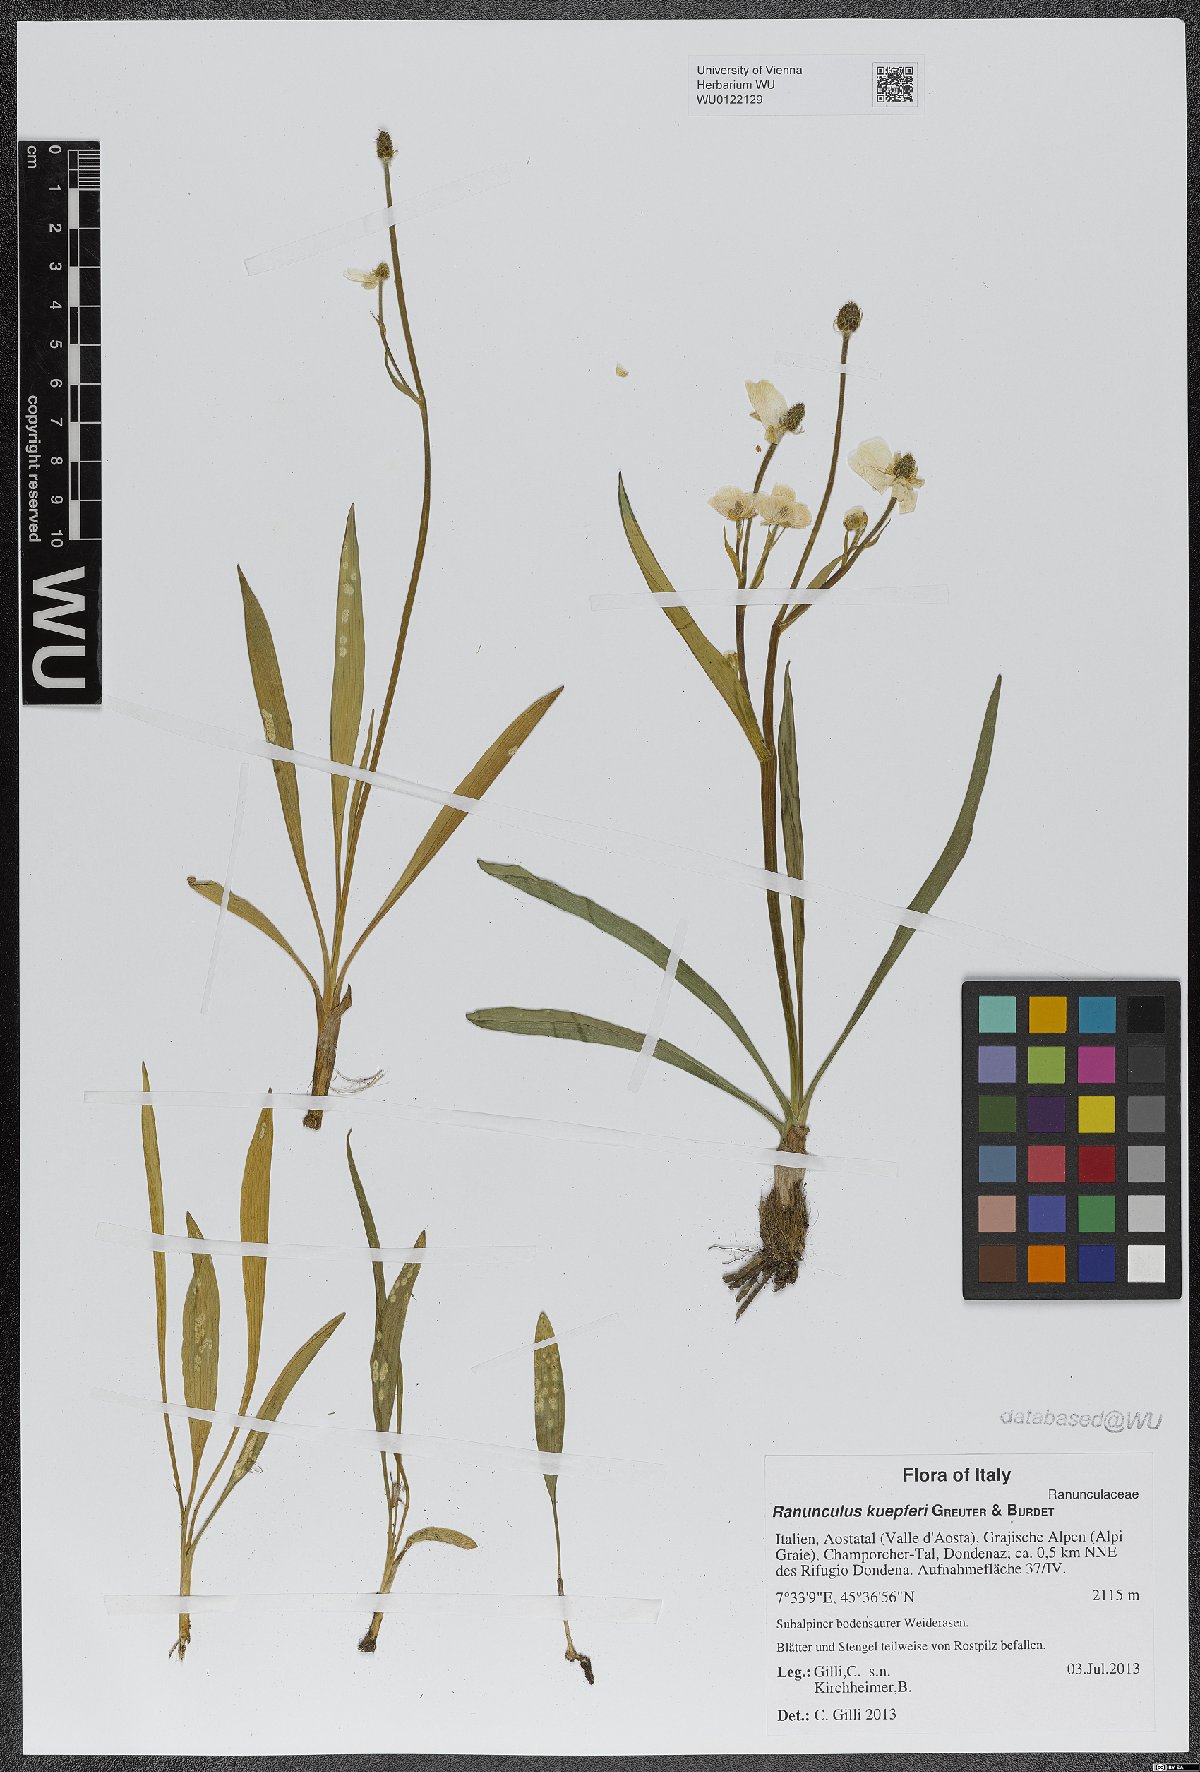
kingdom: Plantae
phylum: Tracheophyta
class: Magnoliopsida
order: Ranunculales
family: Ranunculaceae
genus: Ranunculus
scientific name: Ranunculus kuepferi
